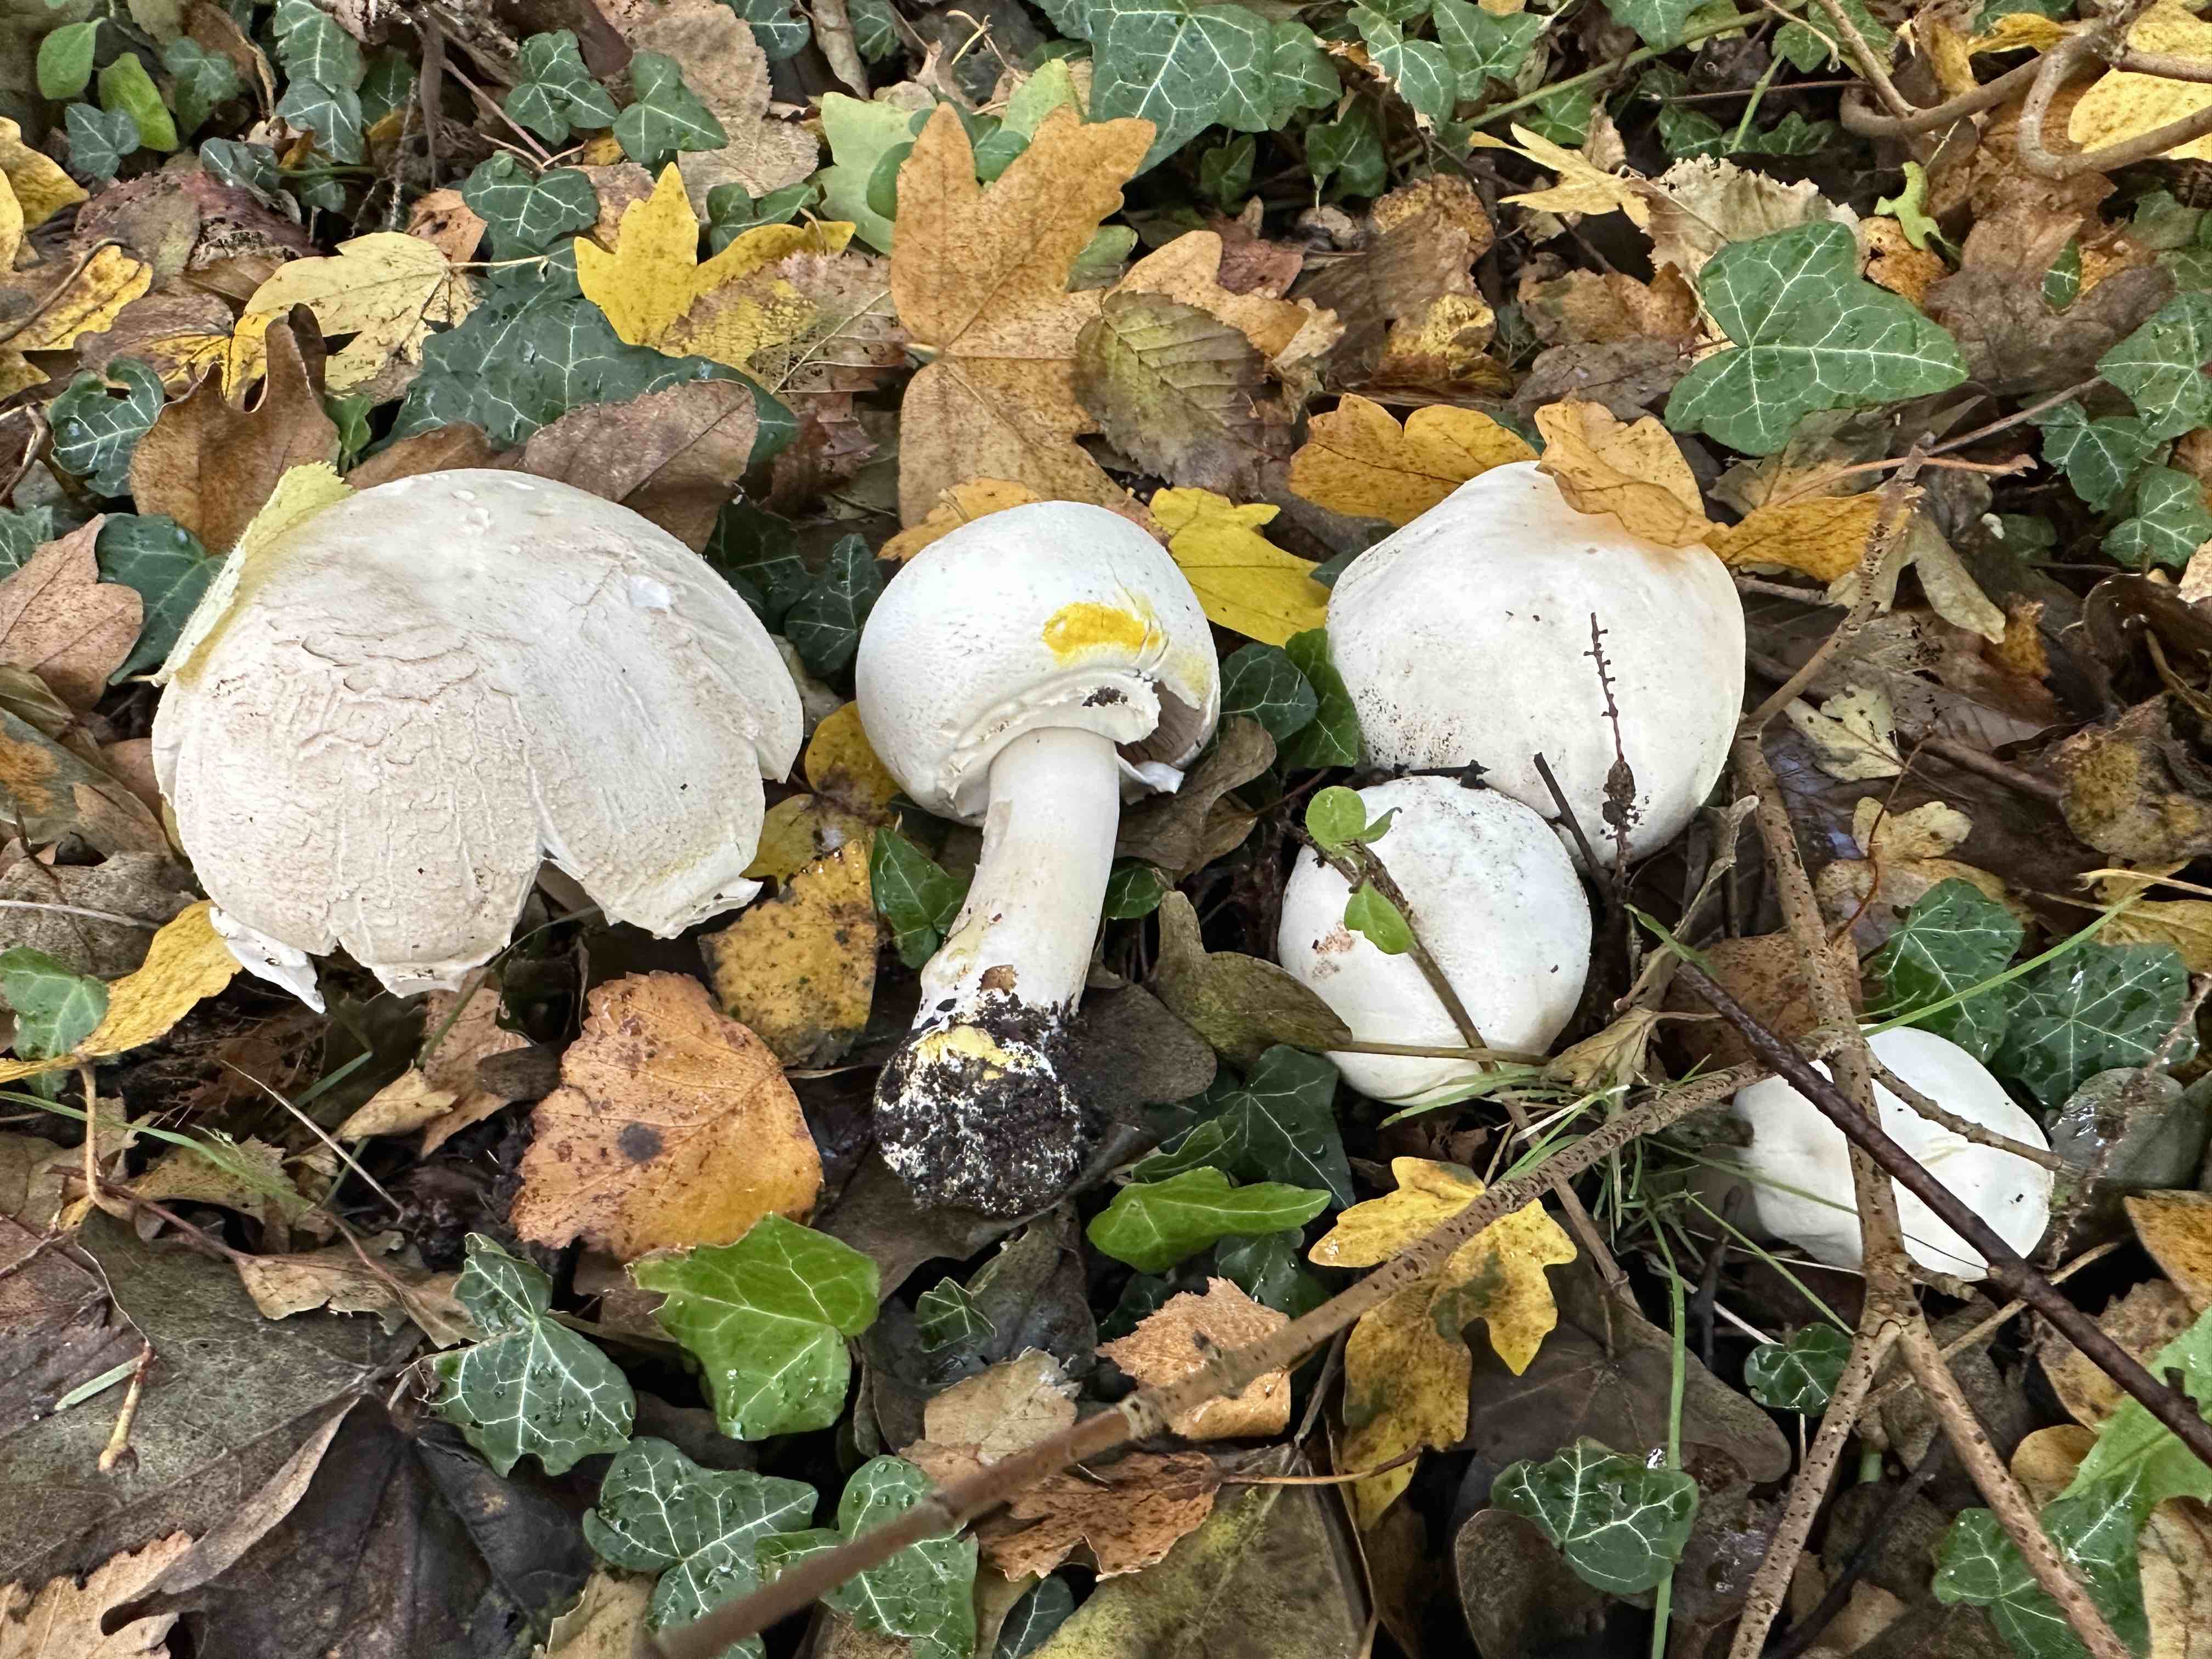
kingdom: Fungi
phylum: Basidiomycota
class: Agaricomycetes
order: Agaricales
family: Agaricaceae
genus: Agaricus
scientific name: Agaricus xanthodermus
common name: karbol-champignon
